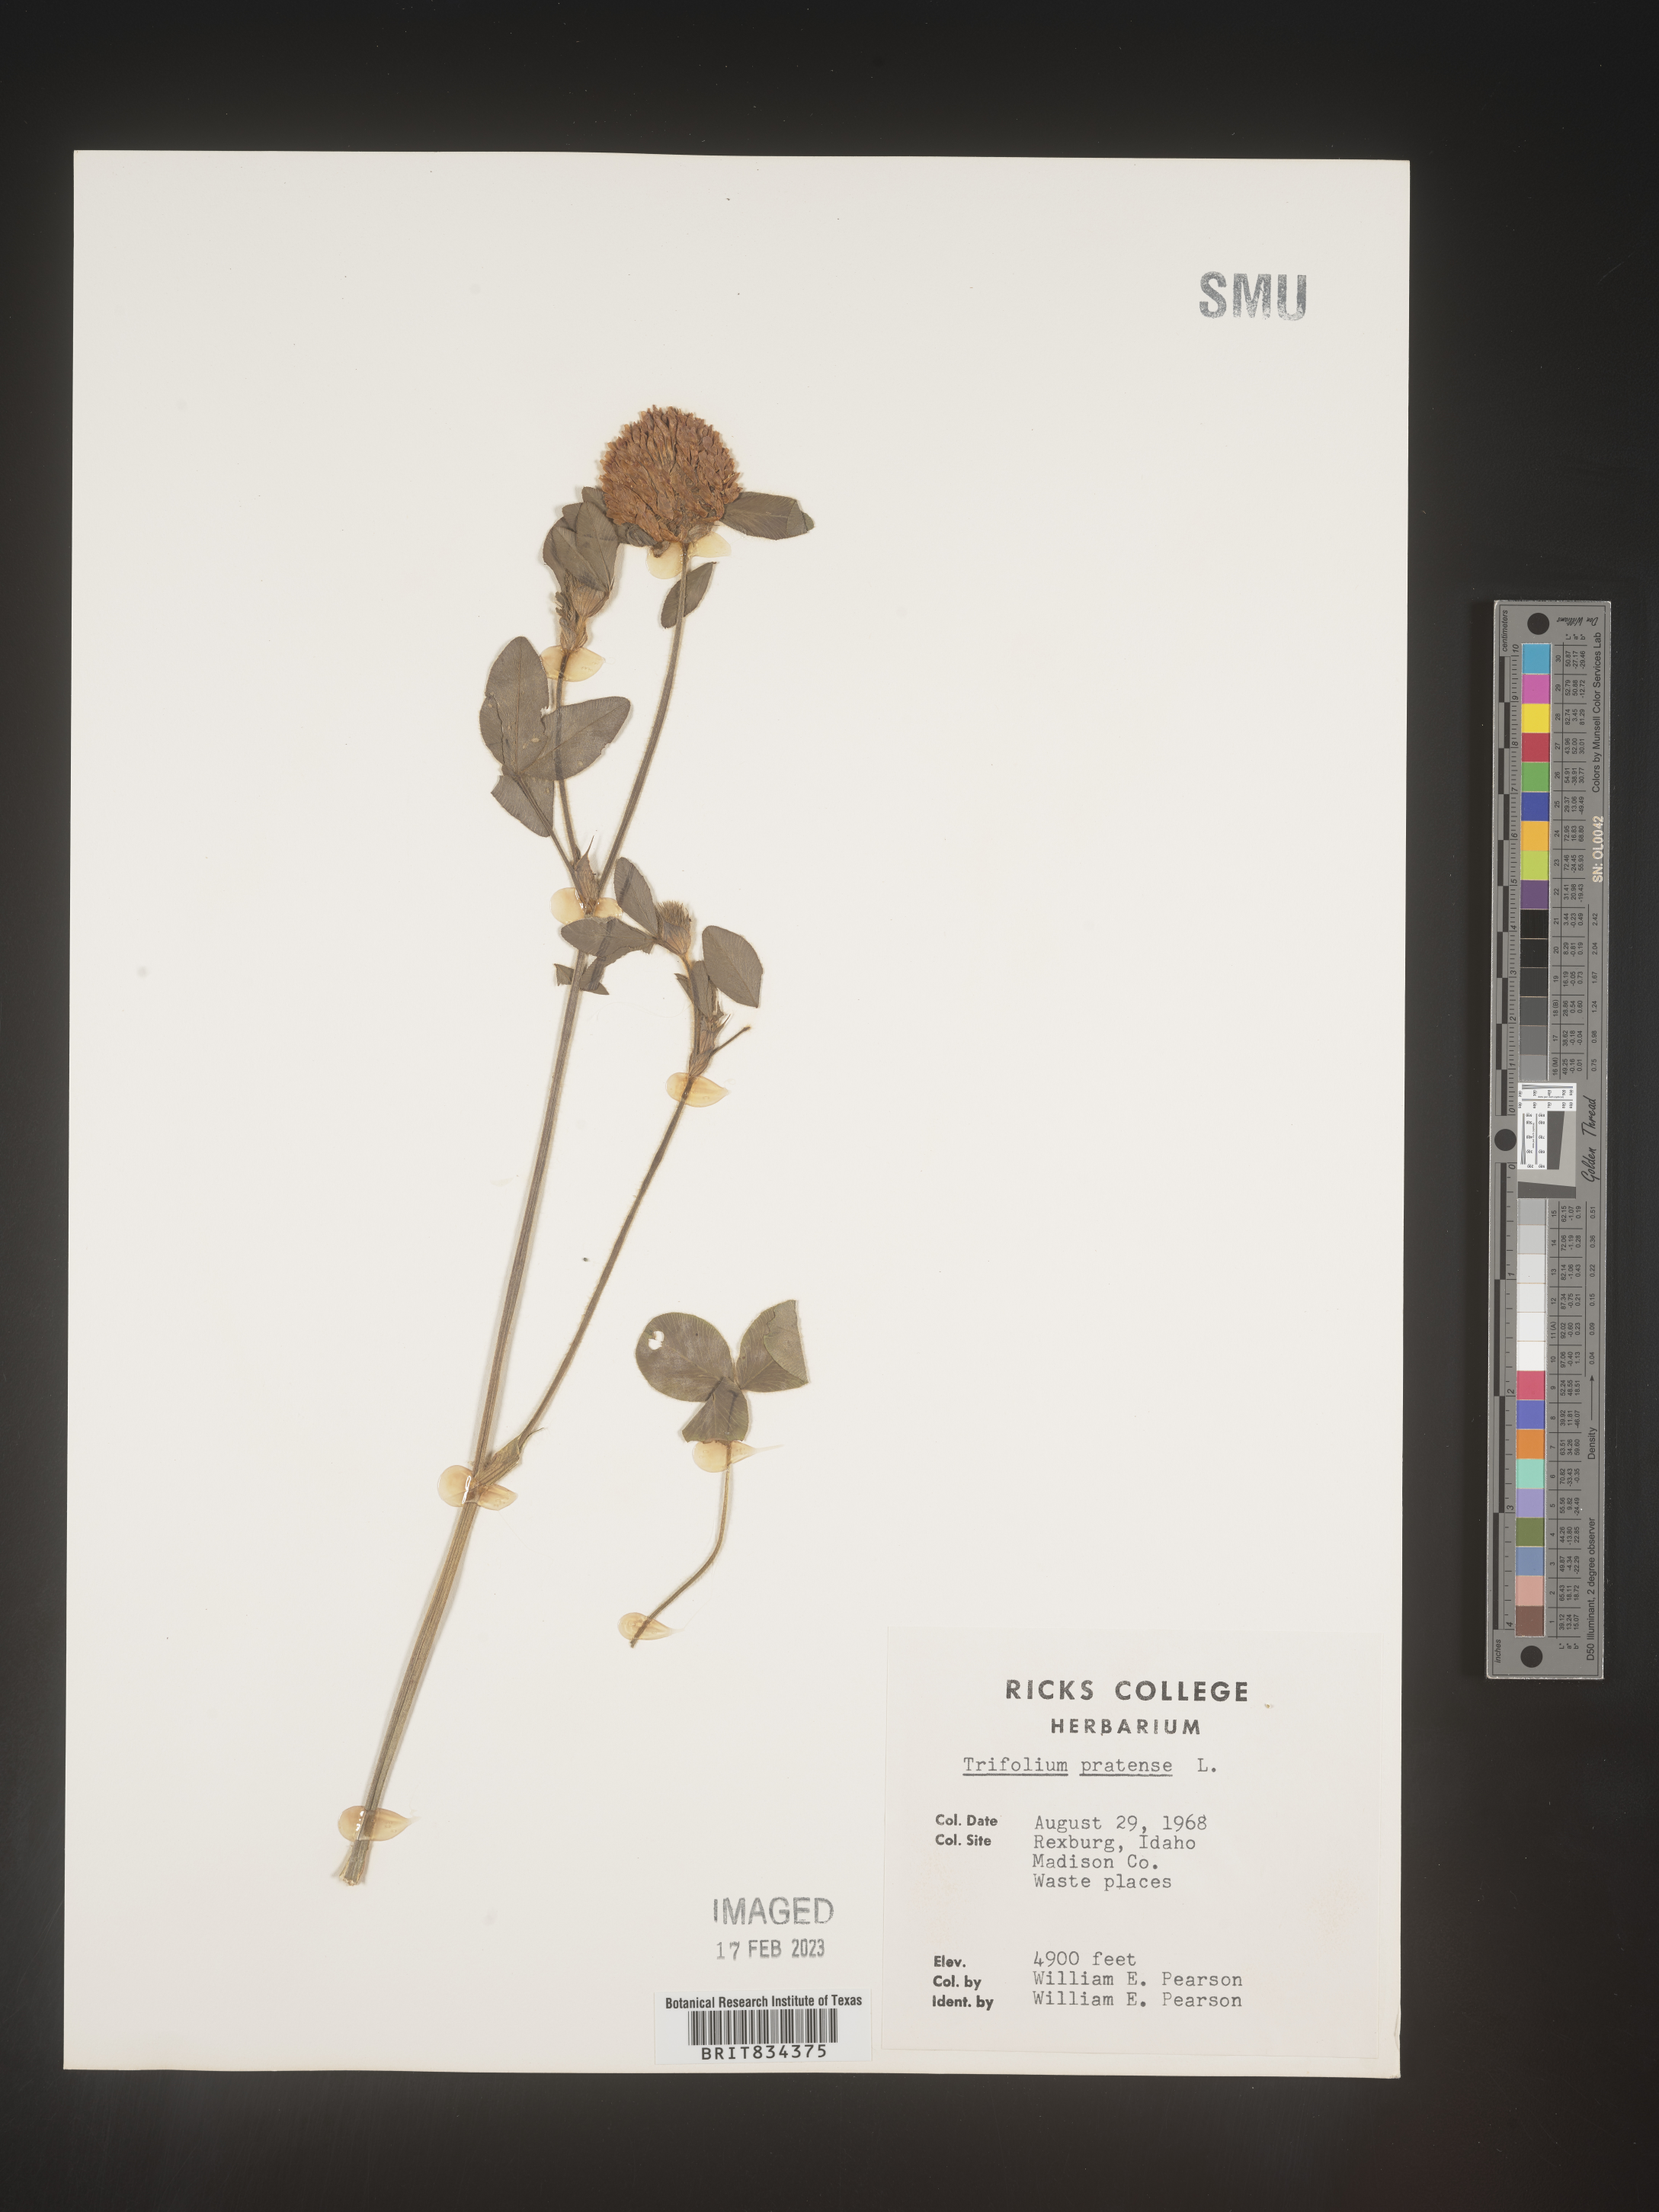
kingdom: Plantae
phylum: Tracheophyta
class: Magnoliopsida
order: Fabales
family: Fabaceae
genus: Trifolium
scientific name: Trifolium pratense
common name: Red clover
